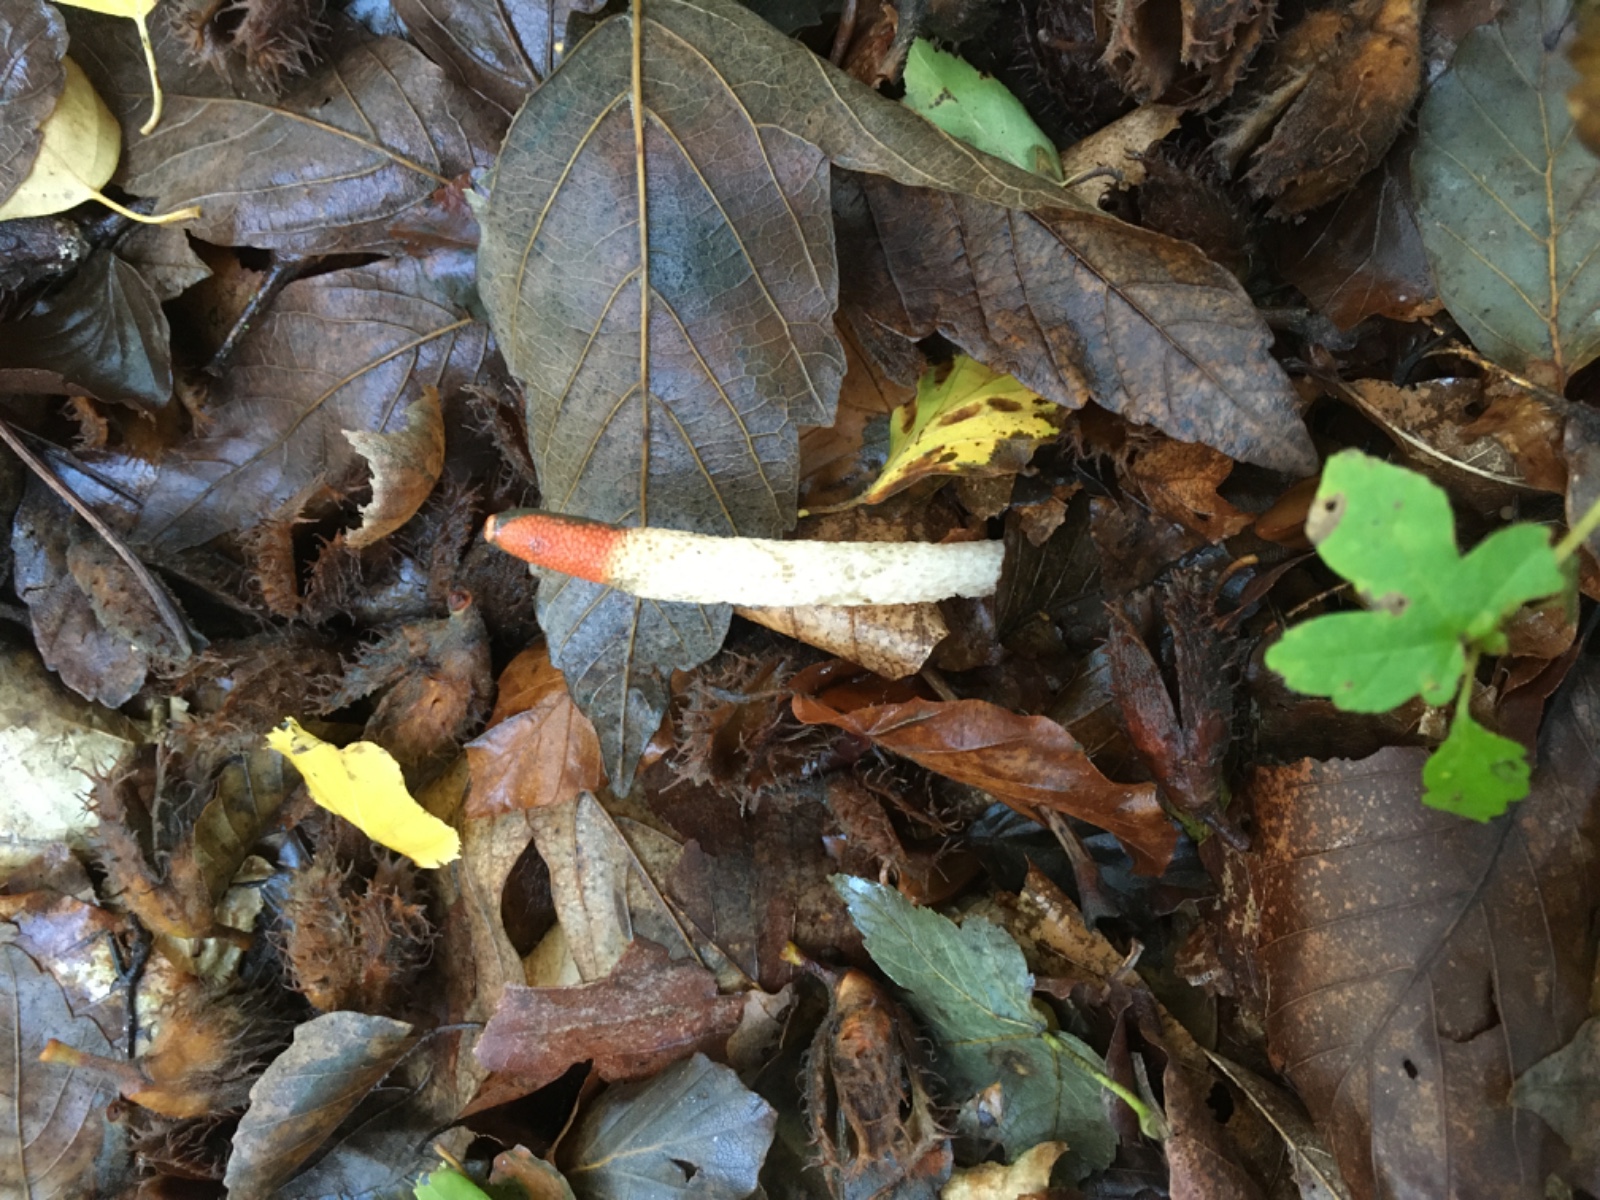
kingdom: Fungi
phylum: Basidiomycota
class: Agaricomycetes
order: Phallales
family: Phallaceae
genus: Mutinus
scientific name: Mutinus caninus
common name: hunde-stinksvamp
